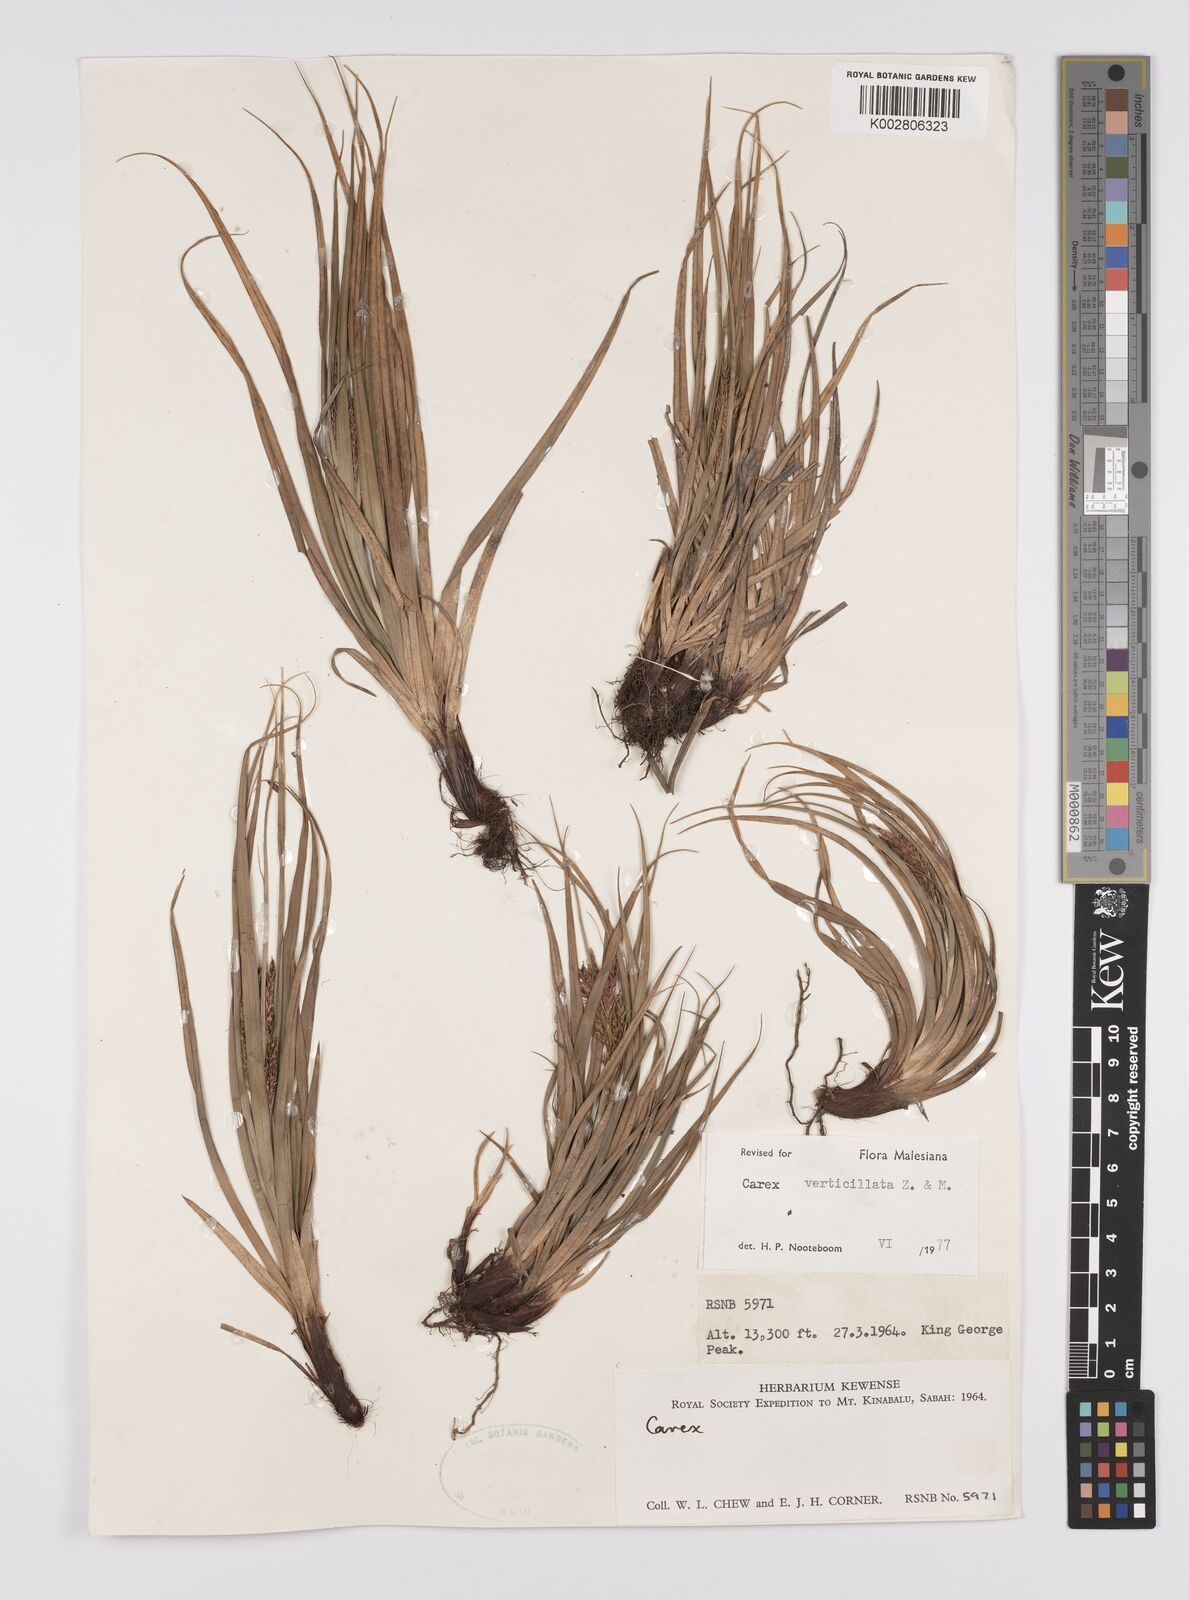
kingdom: Plantae
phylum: Tracheophyta
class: Liliopsida
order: Poales
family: Cyperaceae
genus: Carex
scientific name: Carex verticillata
